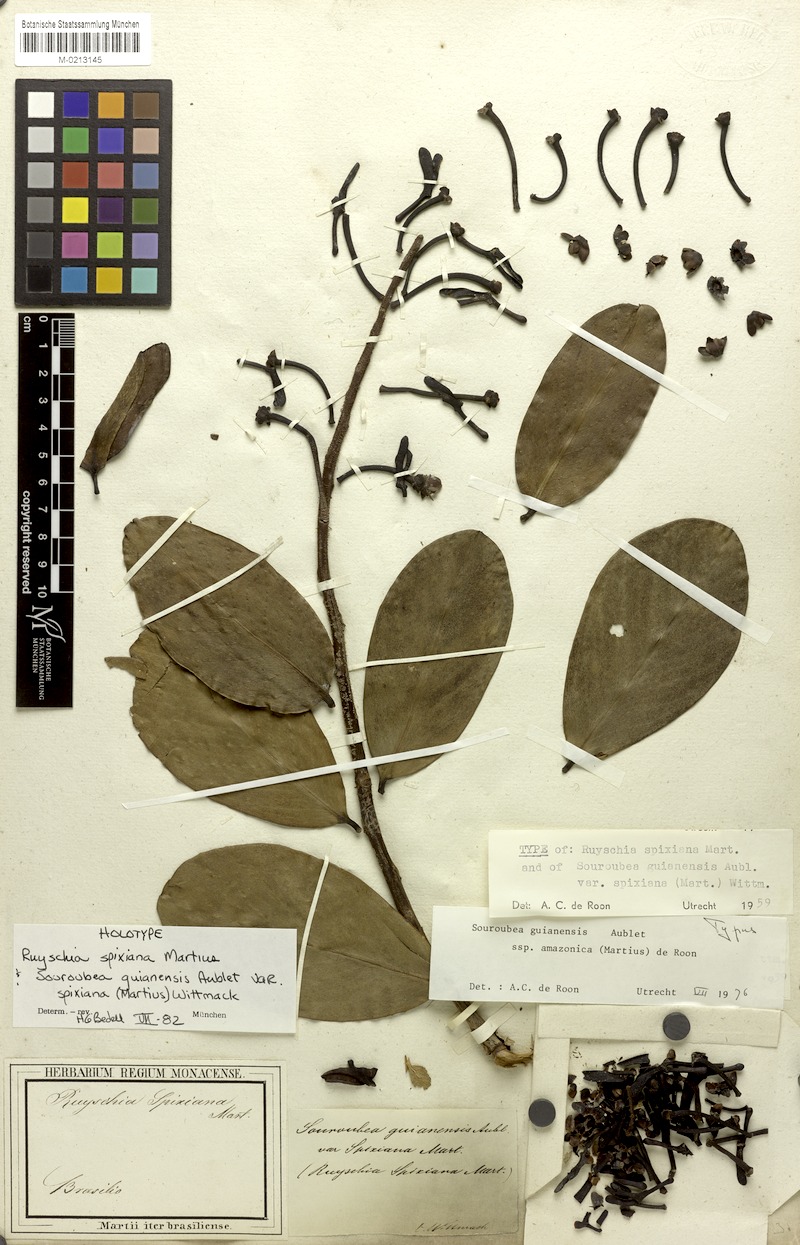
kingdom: Plantae
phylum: Tracheophyta
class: Magnoliopsida
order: Ericales
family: Marcgraviaceae
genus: Souroubea
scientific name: Souroubea guianensis
